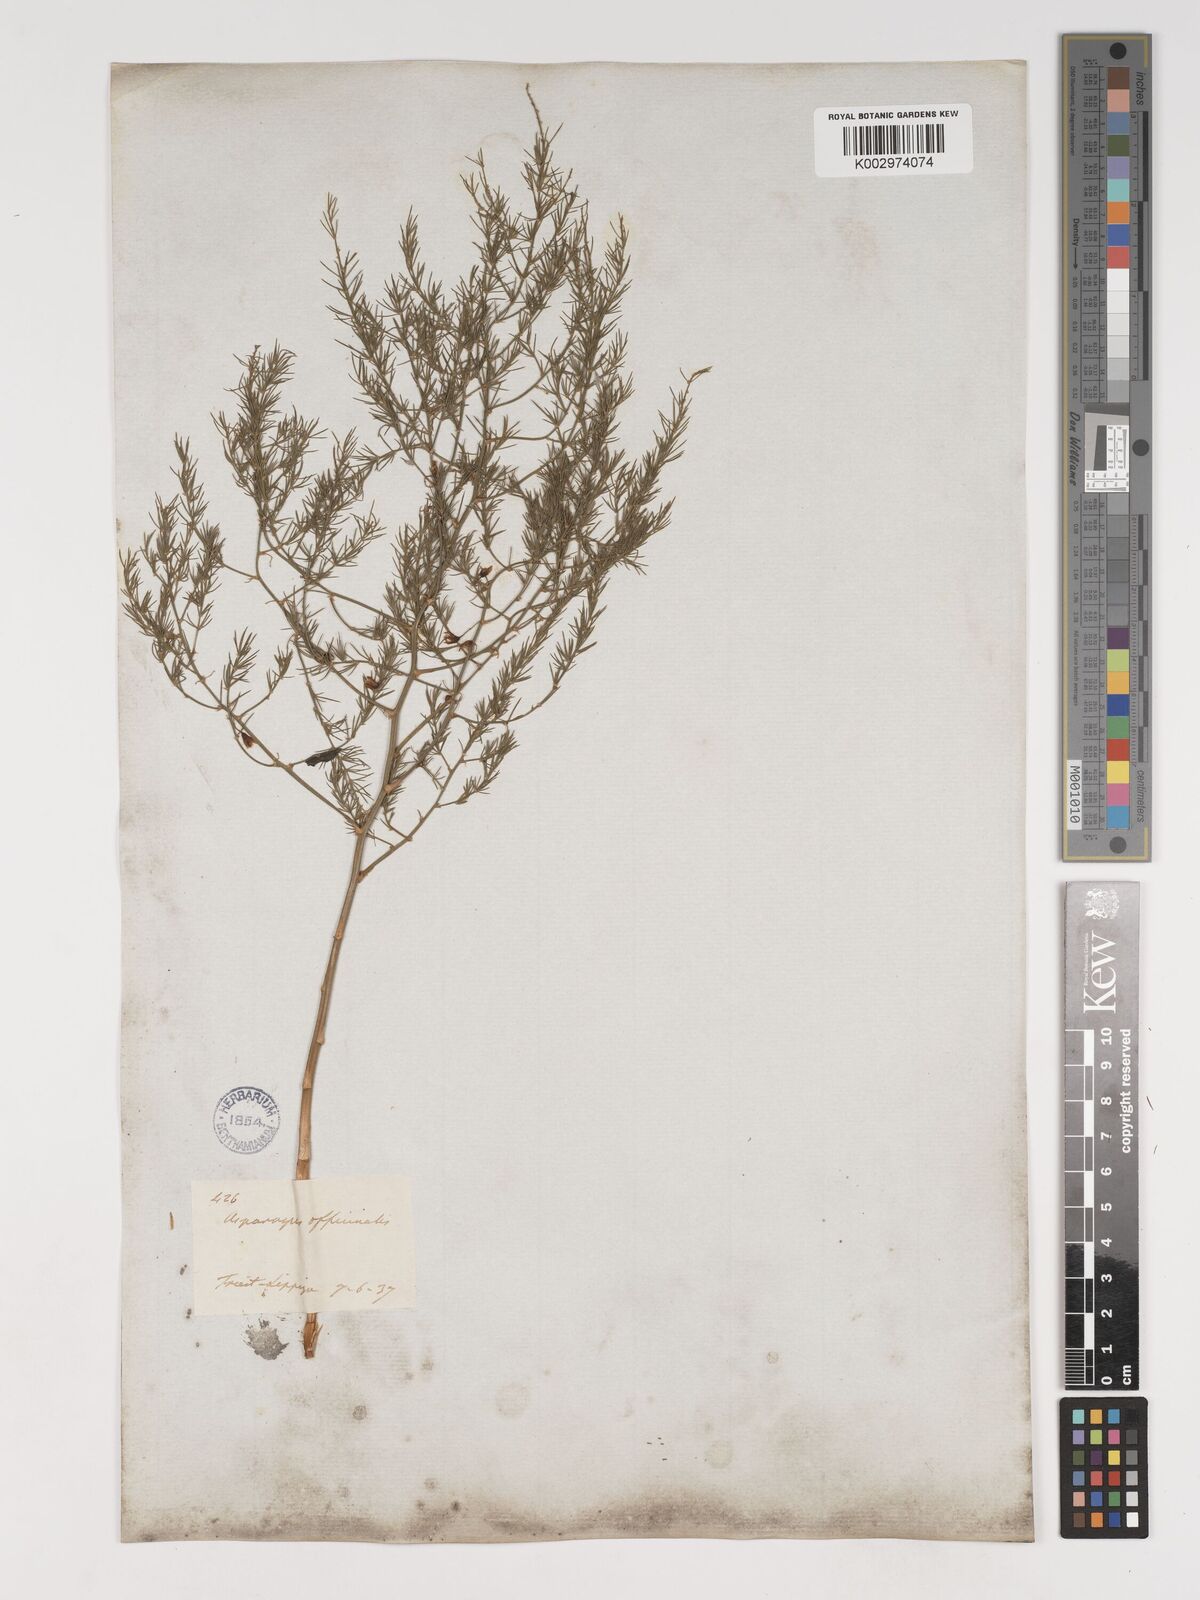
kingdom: Plantae
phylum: Tracheophyta
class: Liliopsida
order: Asparagales
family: Asparagaceae
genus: Asparagus
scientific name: Asparagus officinalis
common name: Garden asparagus
